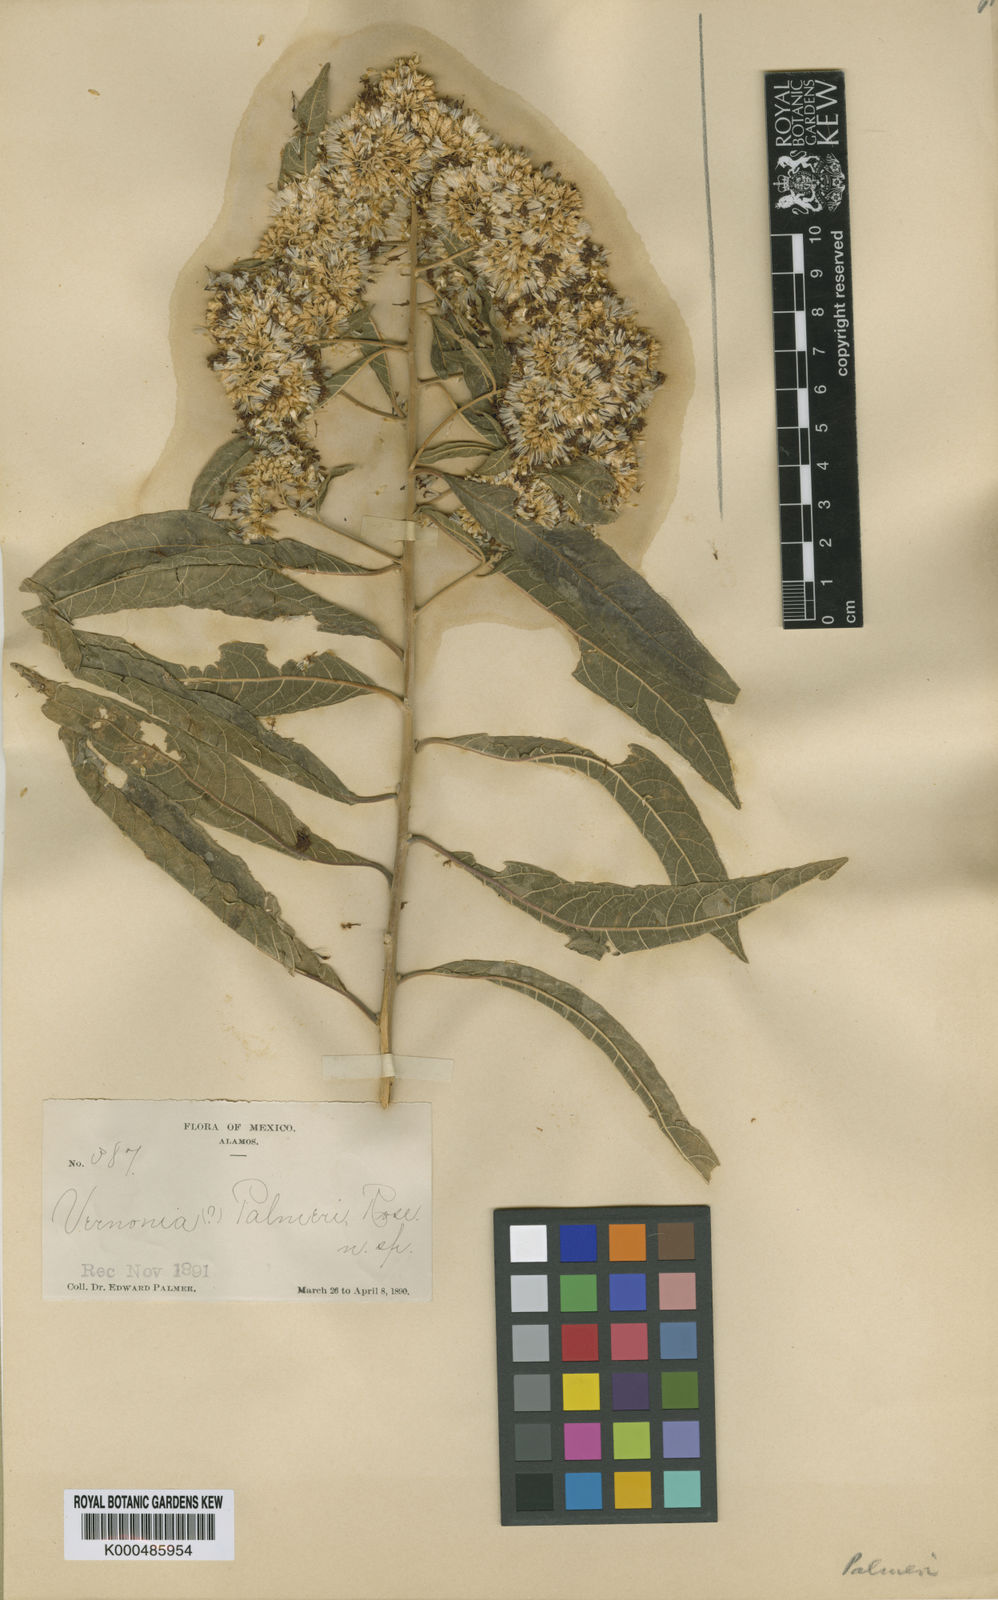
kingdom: Plantae
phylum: Tracheophyta
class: Magnoliopsida
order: Asterales
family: Asteraceae
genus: Eremosis
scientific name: Eremosis palmeri
